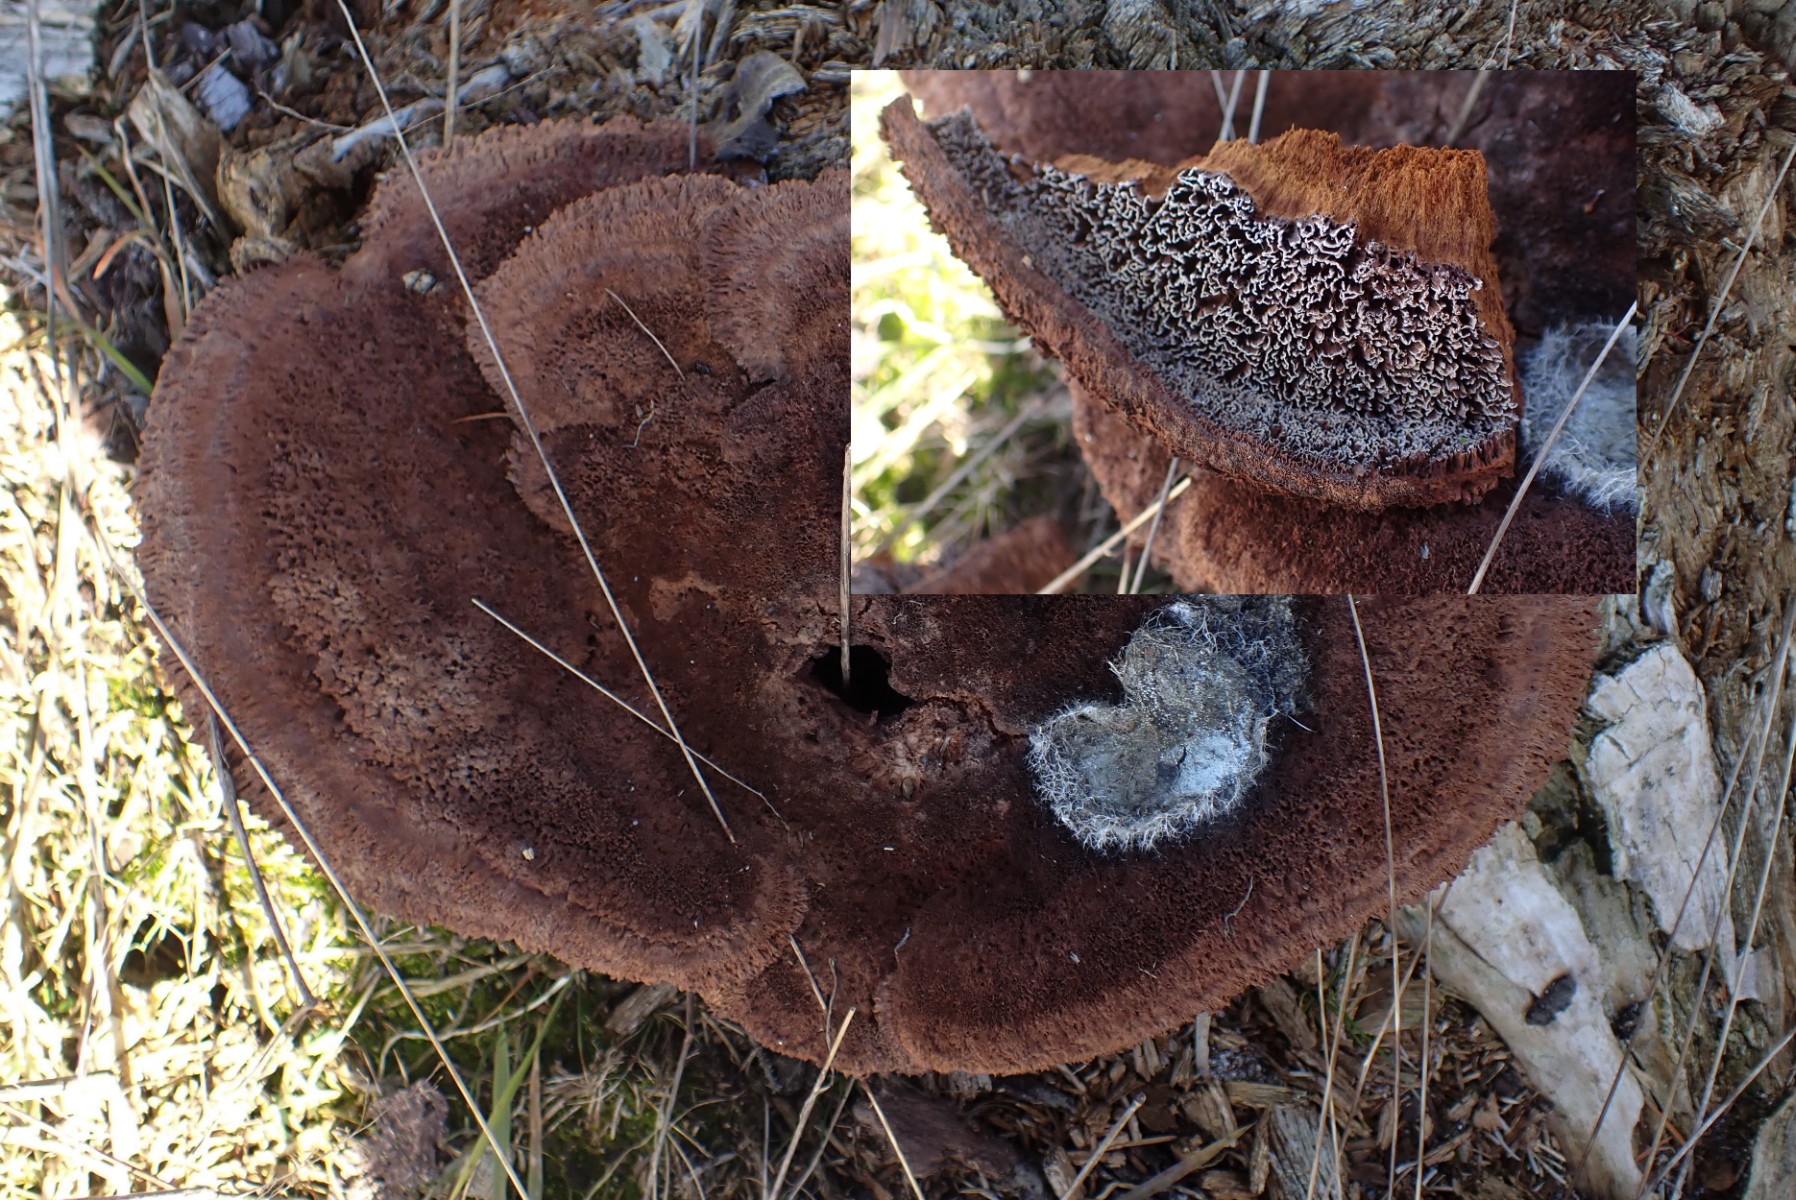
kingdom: Fungi
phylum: Basidiomycota
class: Agaricomycetes
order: Polyporales
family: Laetiporaceae
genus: Phaeolus
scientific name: Phaeolus schweinitzii
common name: brunporesvamp
